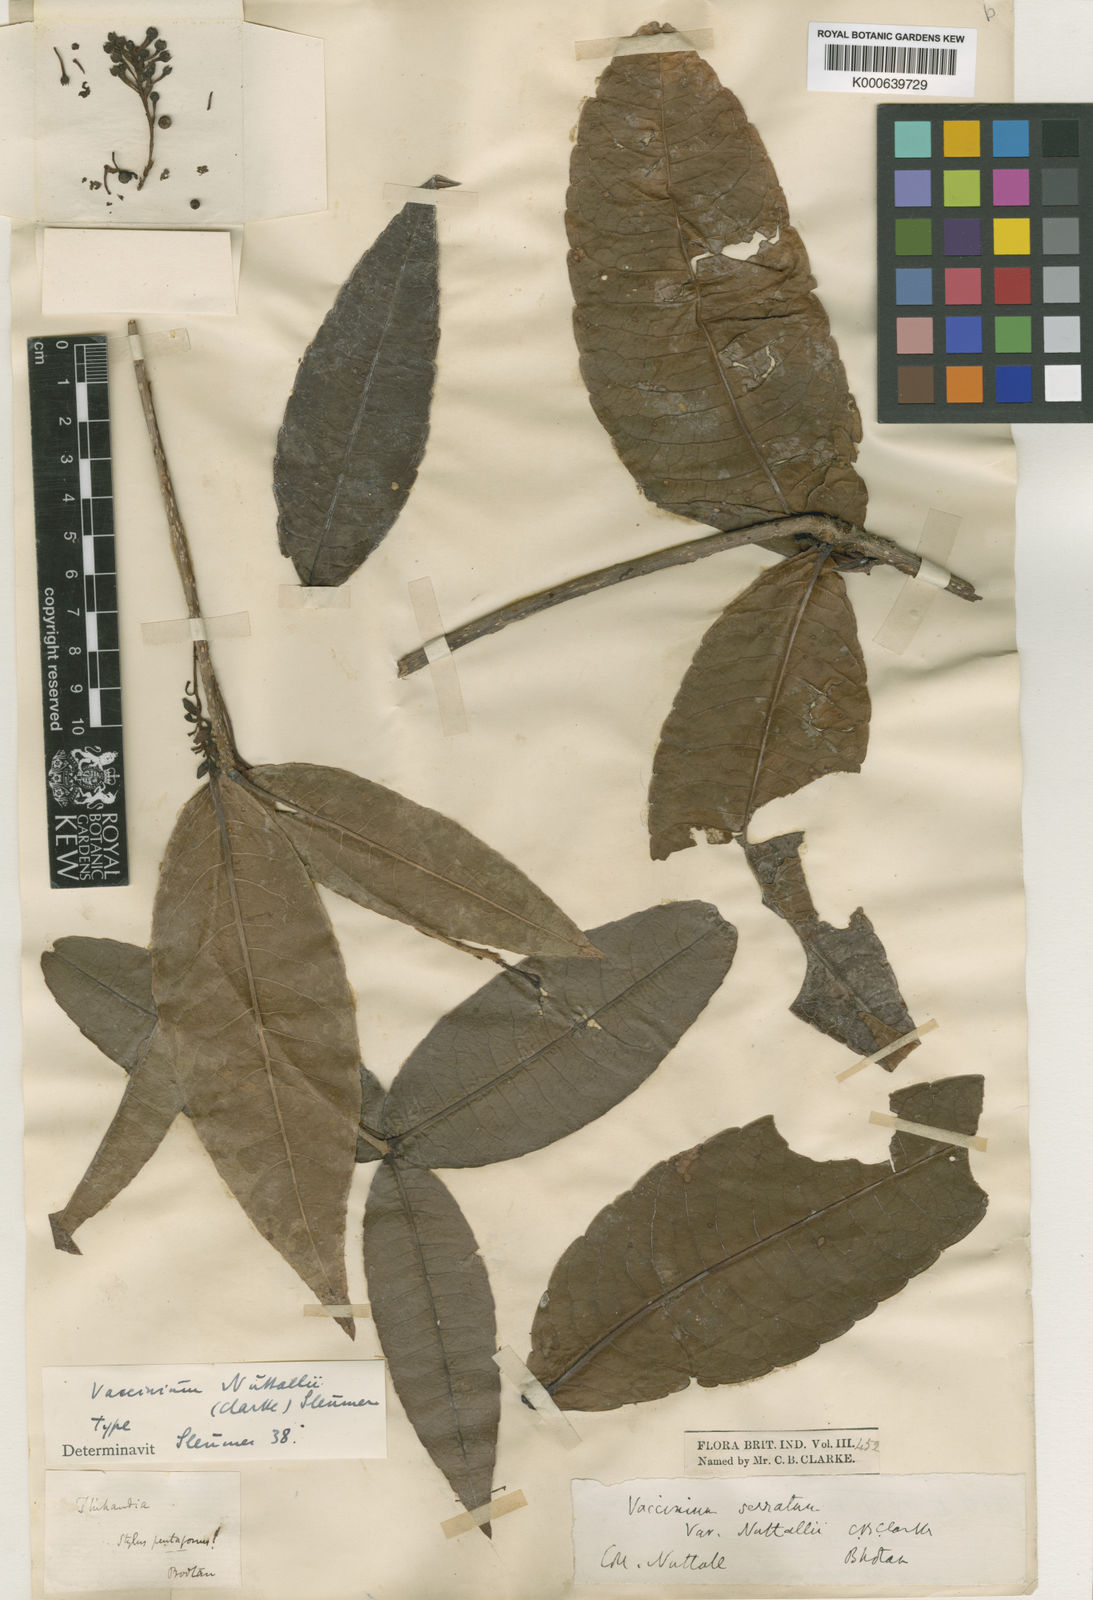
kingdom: Plantae
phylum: Tracheophyta
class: Magnoliopsida
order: Ericales
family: Ericaceae
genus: Vaccinium
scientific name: Vaccinium nuttallii
